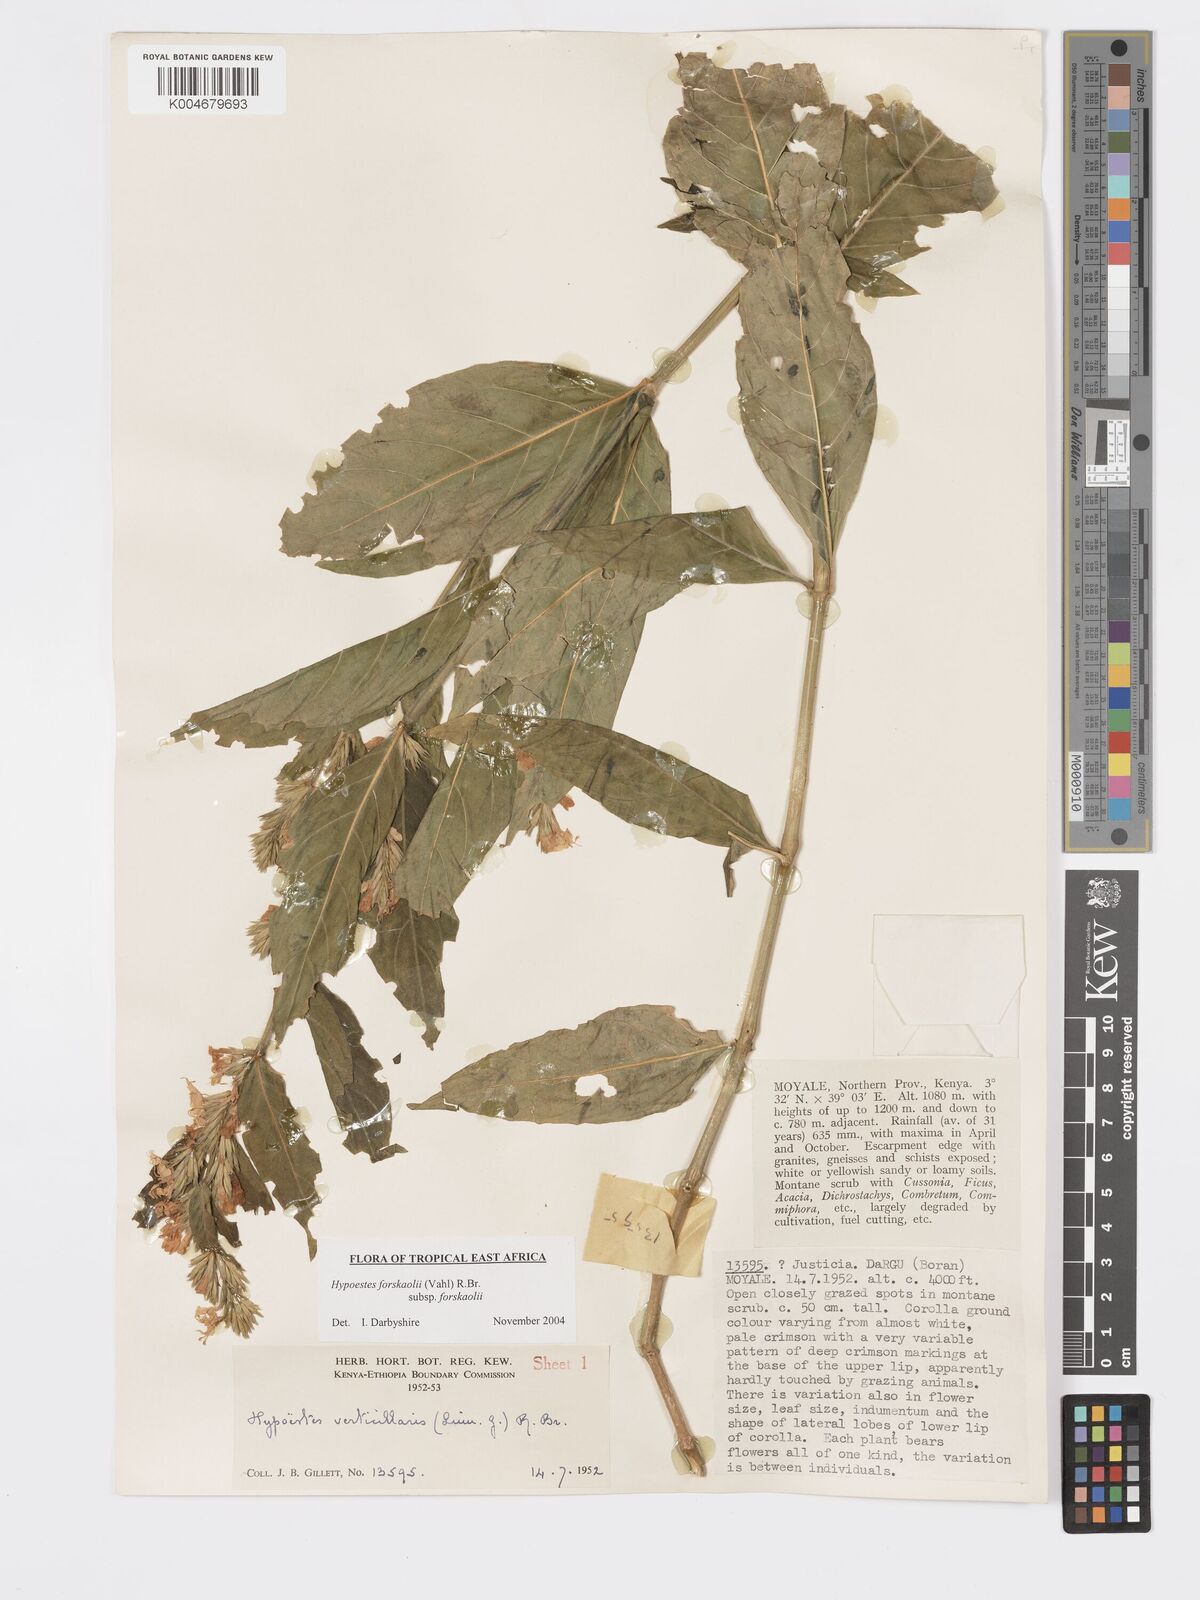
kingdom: Plantae
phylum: Tracheophyta
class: Magnoliopsida
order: Lamiales
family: Acanthaceae
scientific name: Acanthaceae
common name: Acanthaceae
